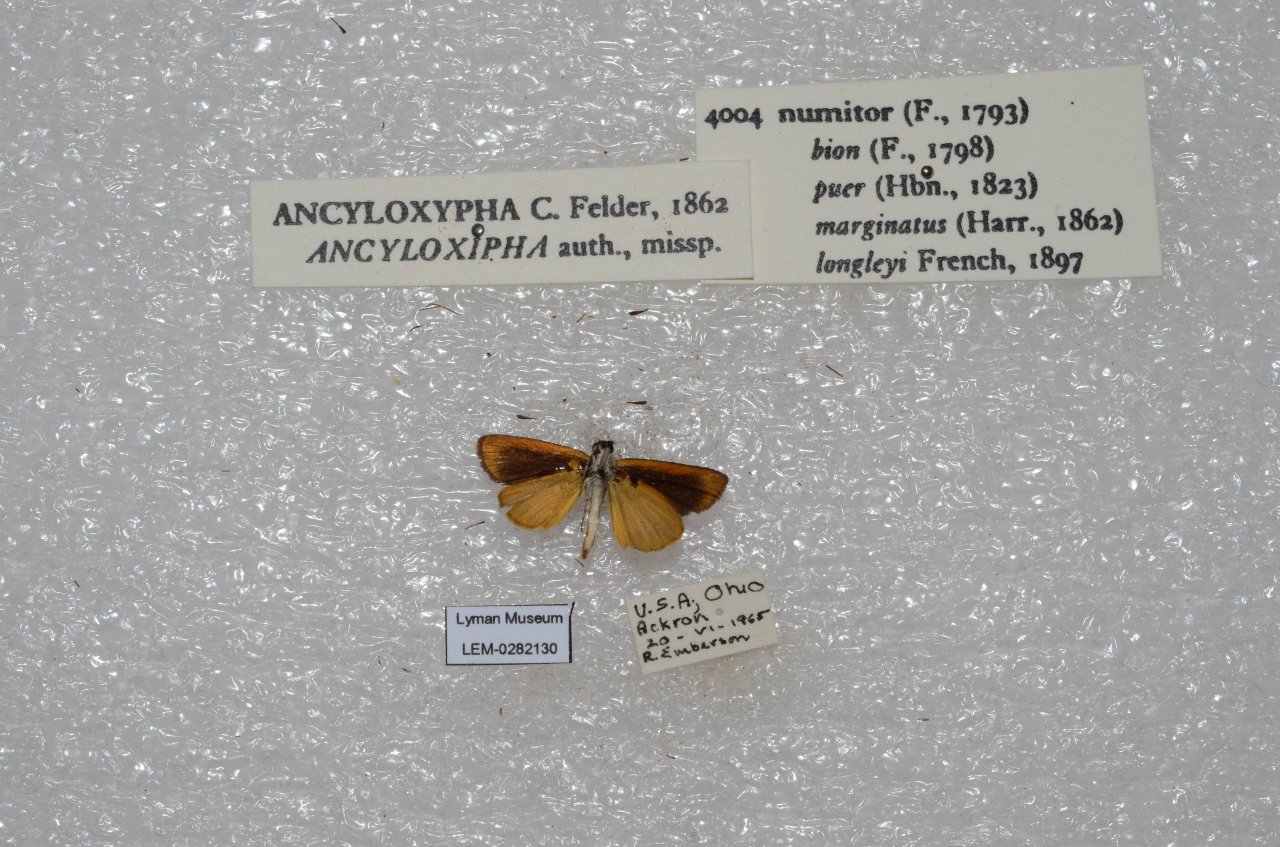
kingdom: Animalia
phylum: Arthropoda
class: Insecta
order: Lepidoptera
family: Hesperiidae
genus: Ancyloxypha
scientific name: Ancyloxypha numitor
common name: Least Skipper
